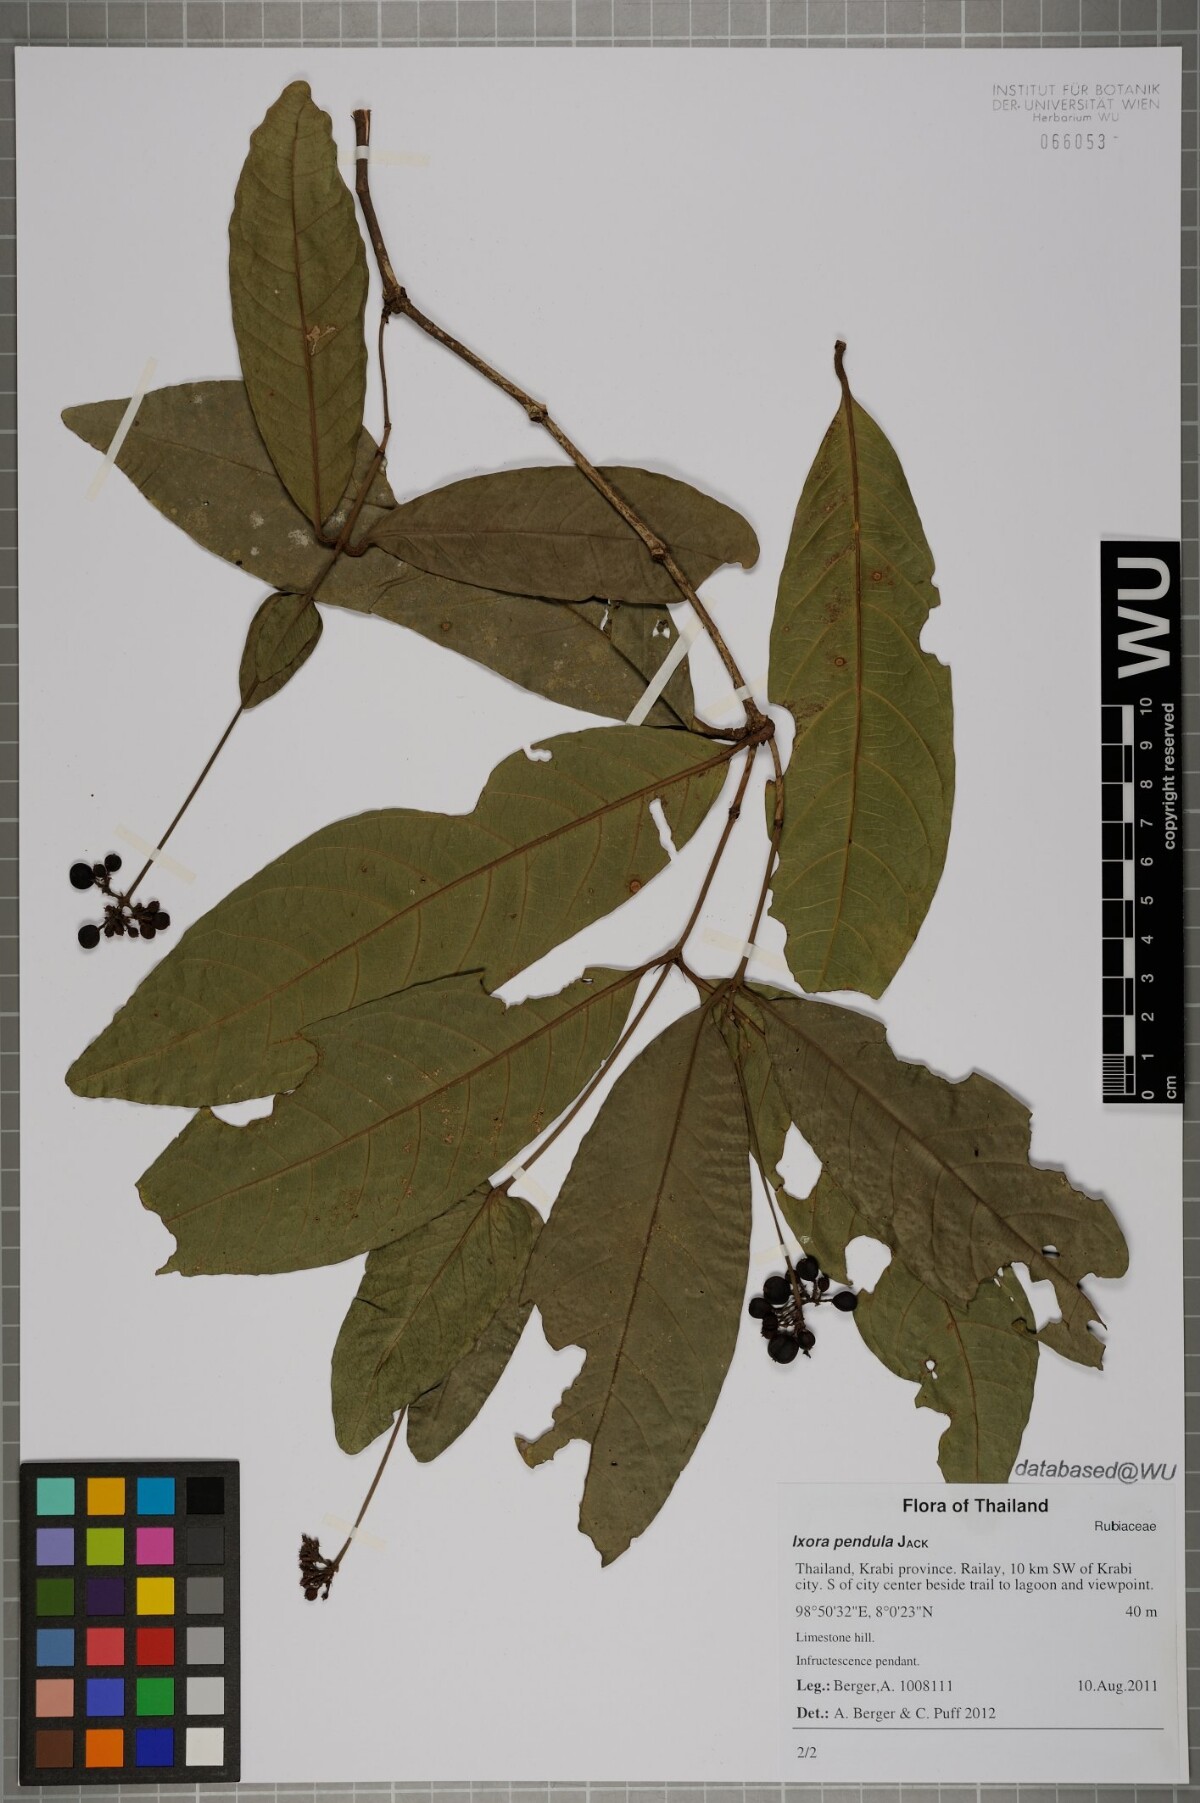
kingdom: Plantae
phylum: Tracheophyta
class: Magnoliopsida
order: Gentianales
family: Rubiaceae
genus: Ixora
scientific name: Ixora pendula
